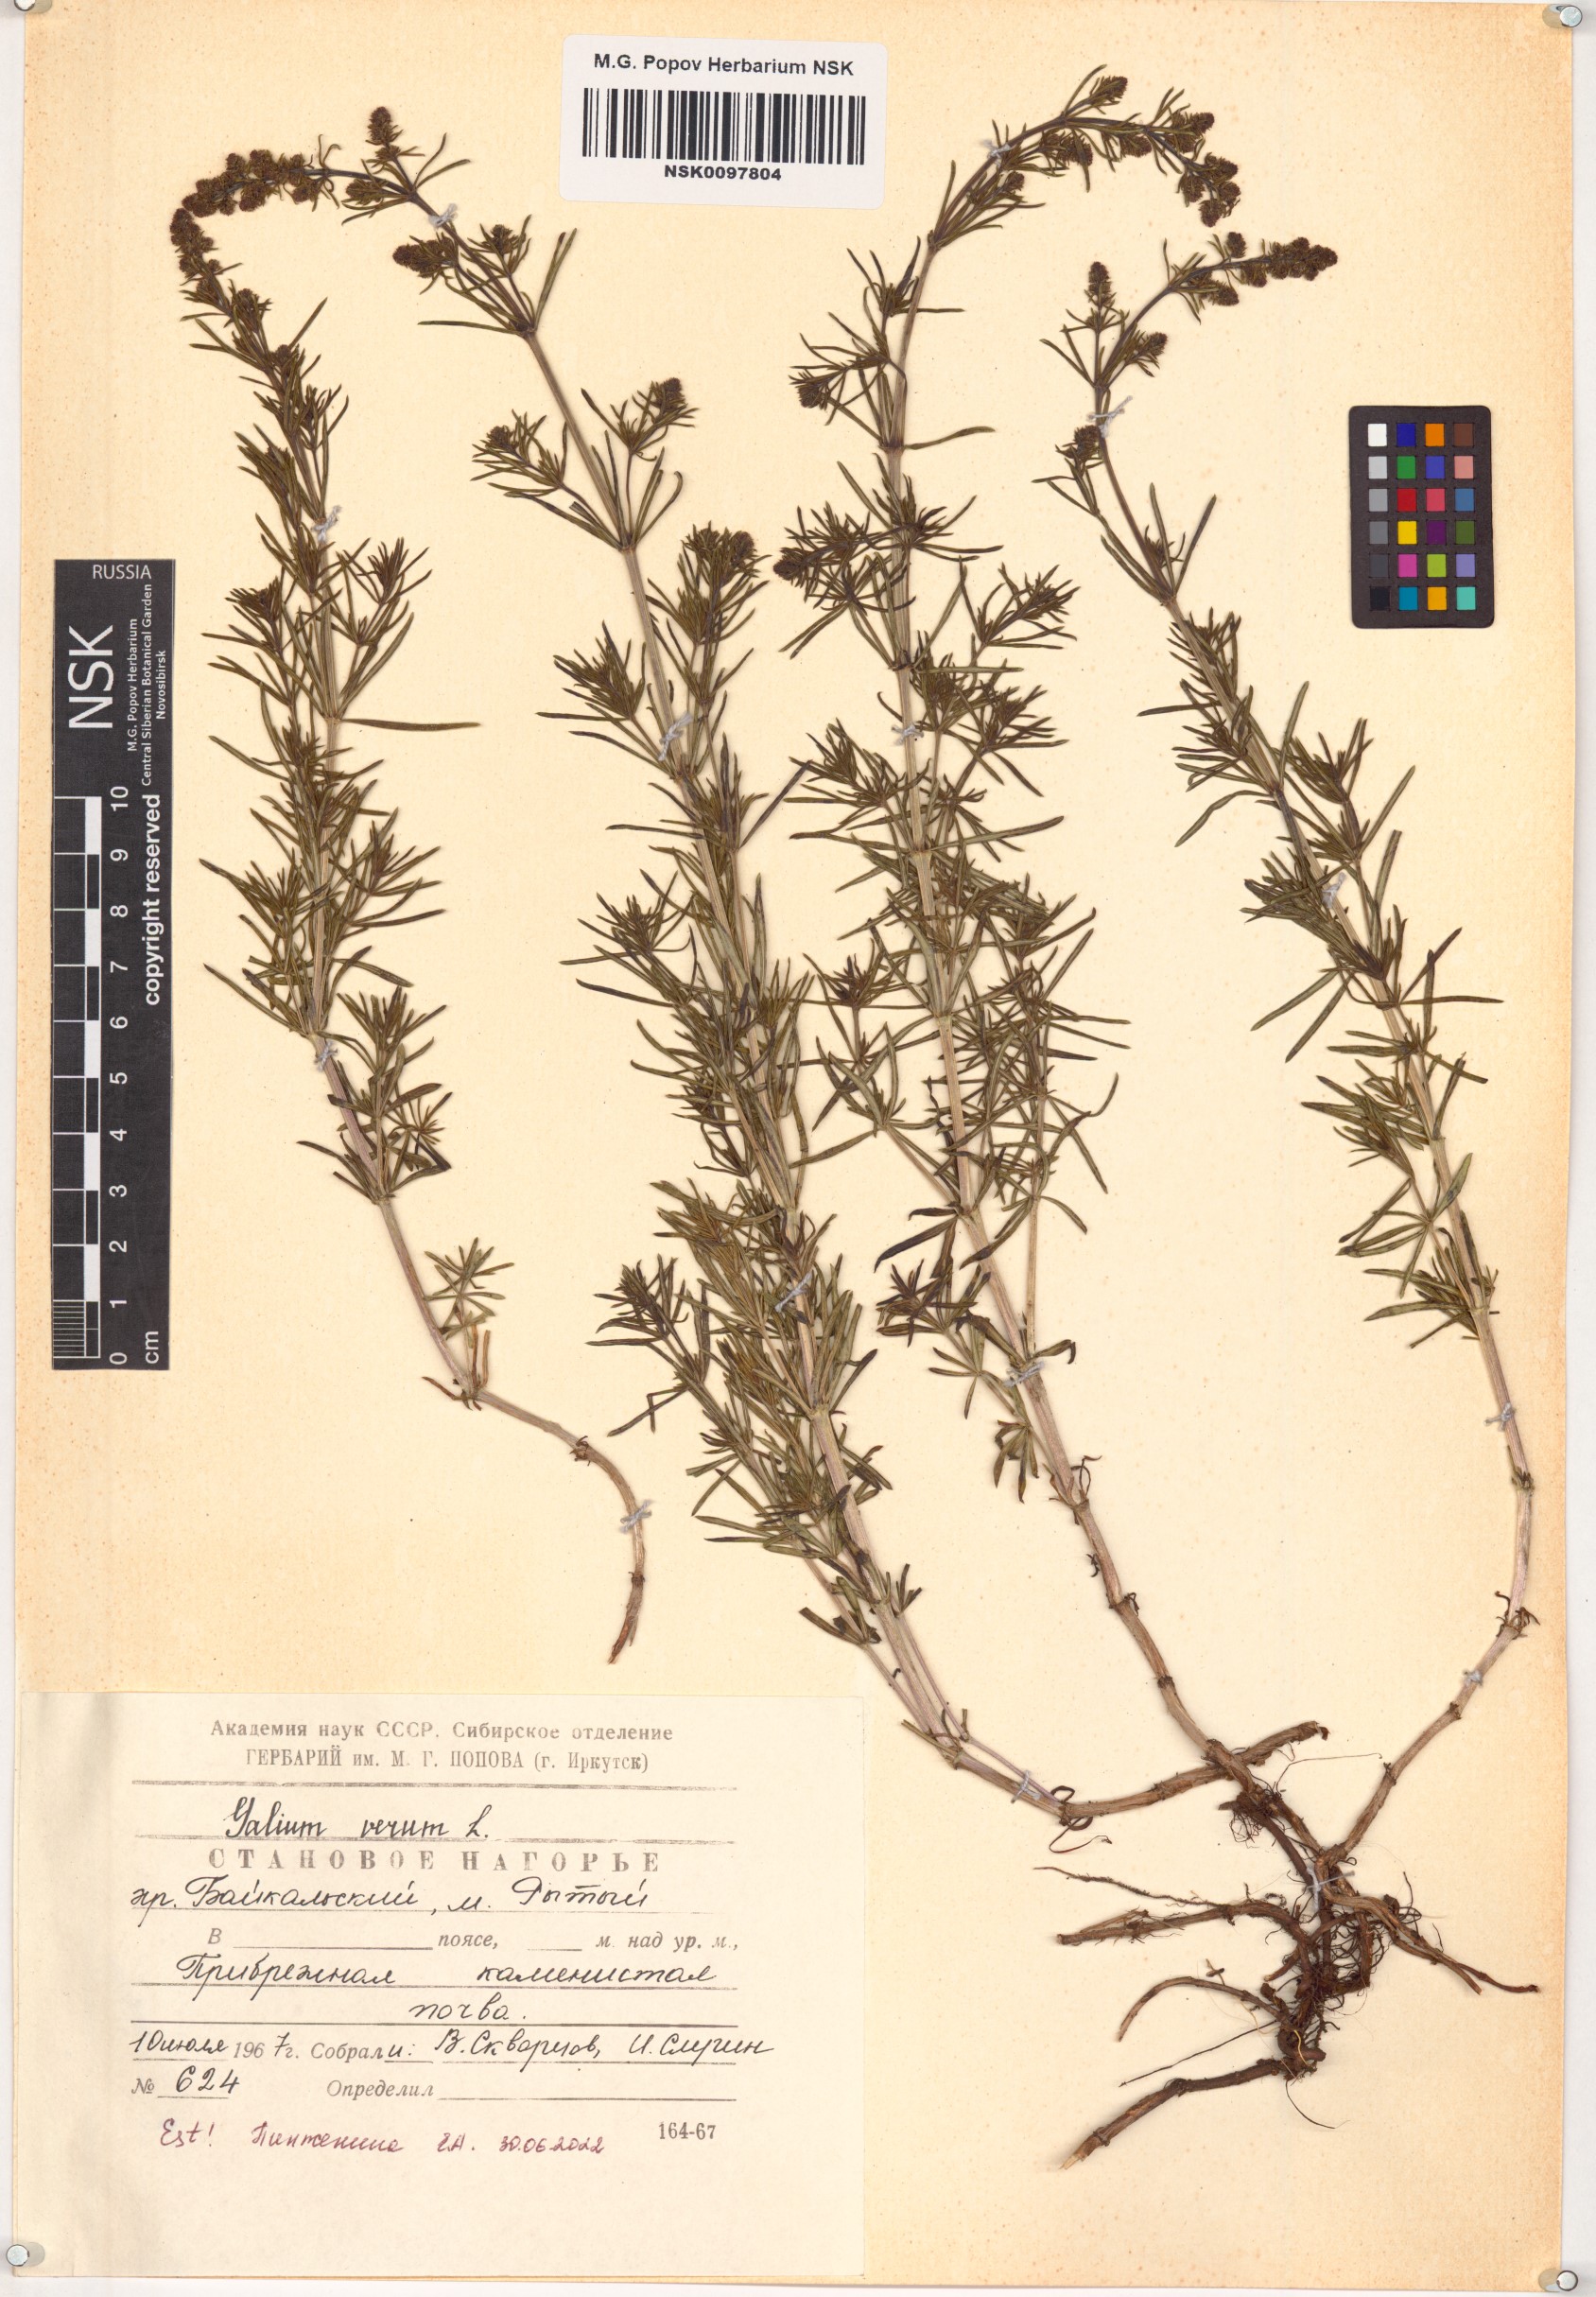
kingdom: Plantae
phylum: Tracheophyta
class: Magnoliopsida
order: Gentianales
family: Rubiaceae
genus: Galium
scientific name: Galium verum
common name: Lady's bedstraw
